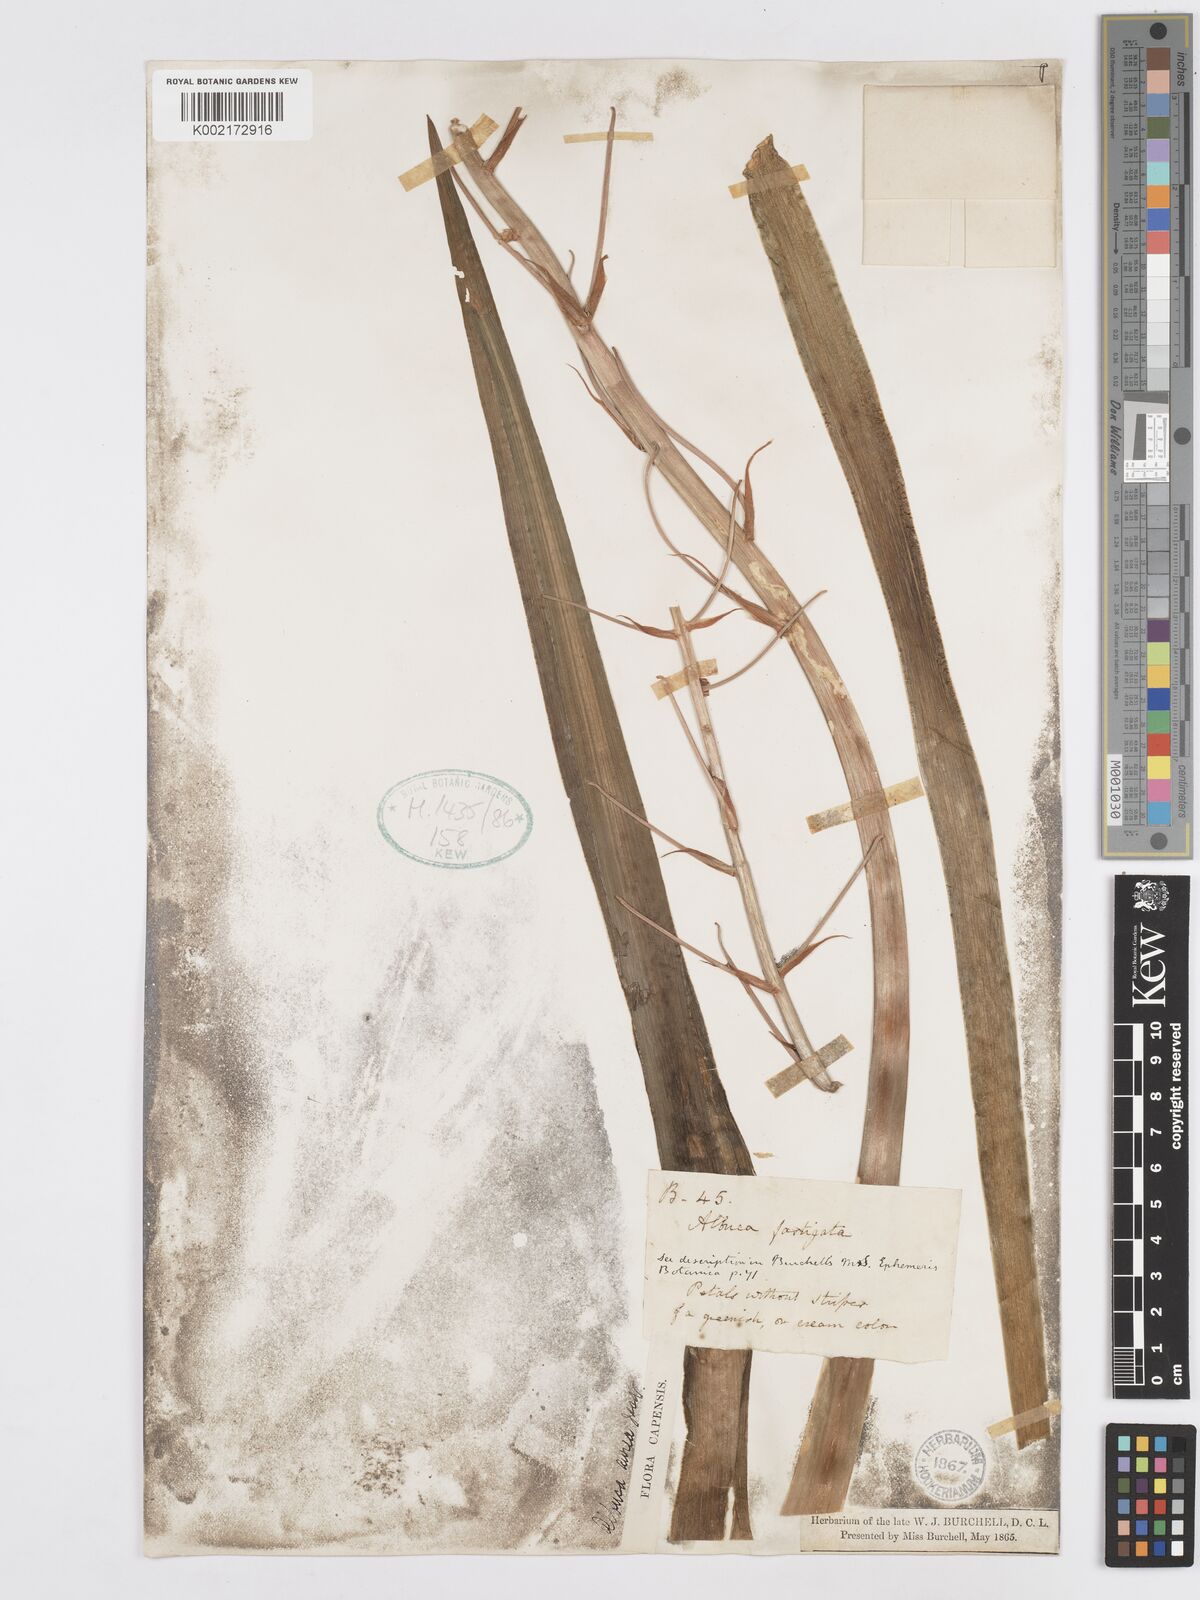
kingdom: Plantae
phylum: Tracheophyta
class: Liliopsida
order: Asparagales
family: Asparagaceae
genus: Albuca
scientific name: Albuca fastigiata
